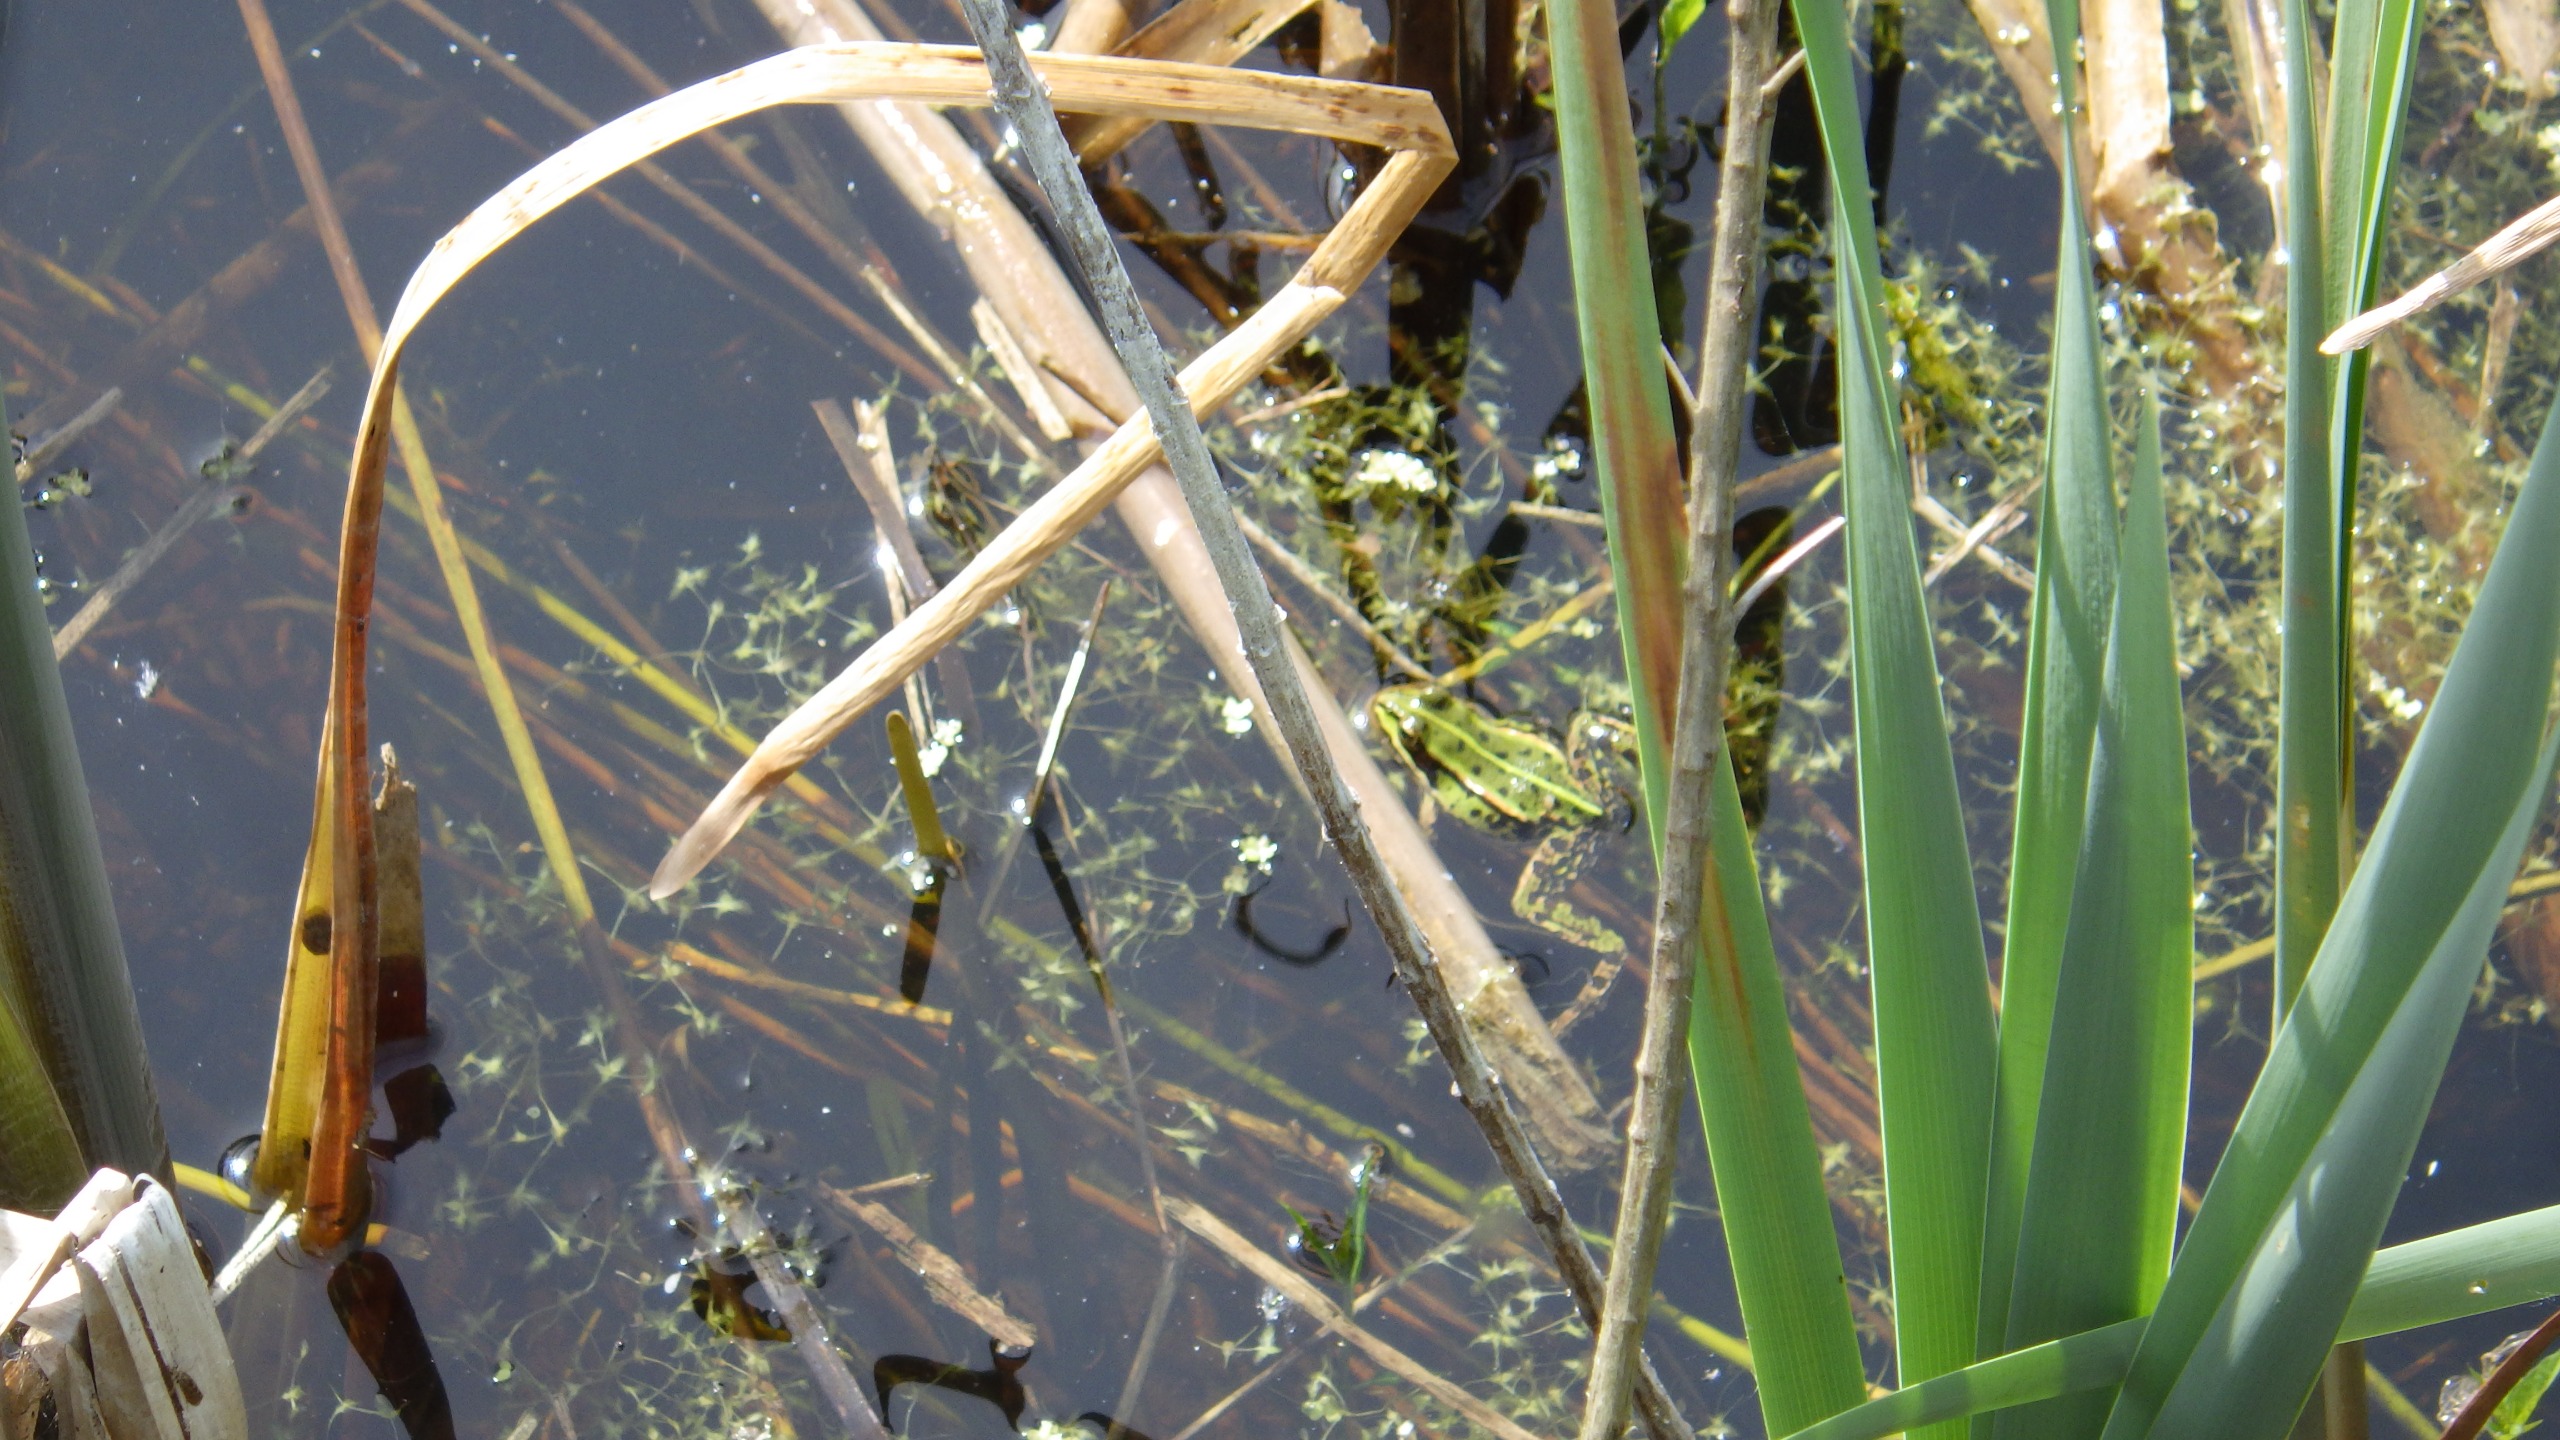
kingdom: Animalia
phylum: Chordata
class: Amphibia
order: Anura
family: Ranidae
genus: Pelophylax
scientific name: Pelophylax lessonae
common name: Grøn frø
